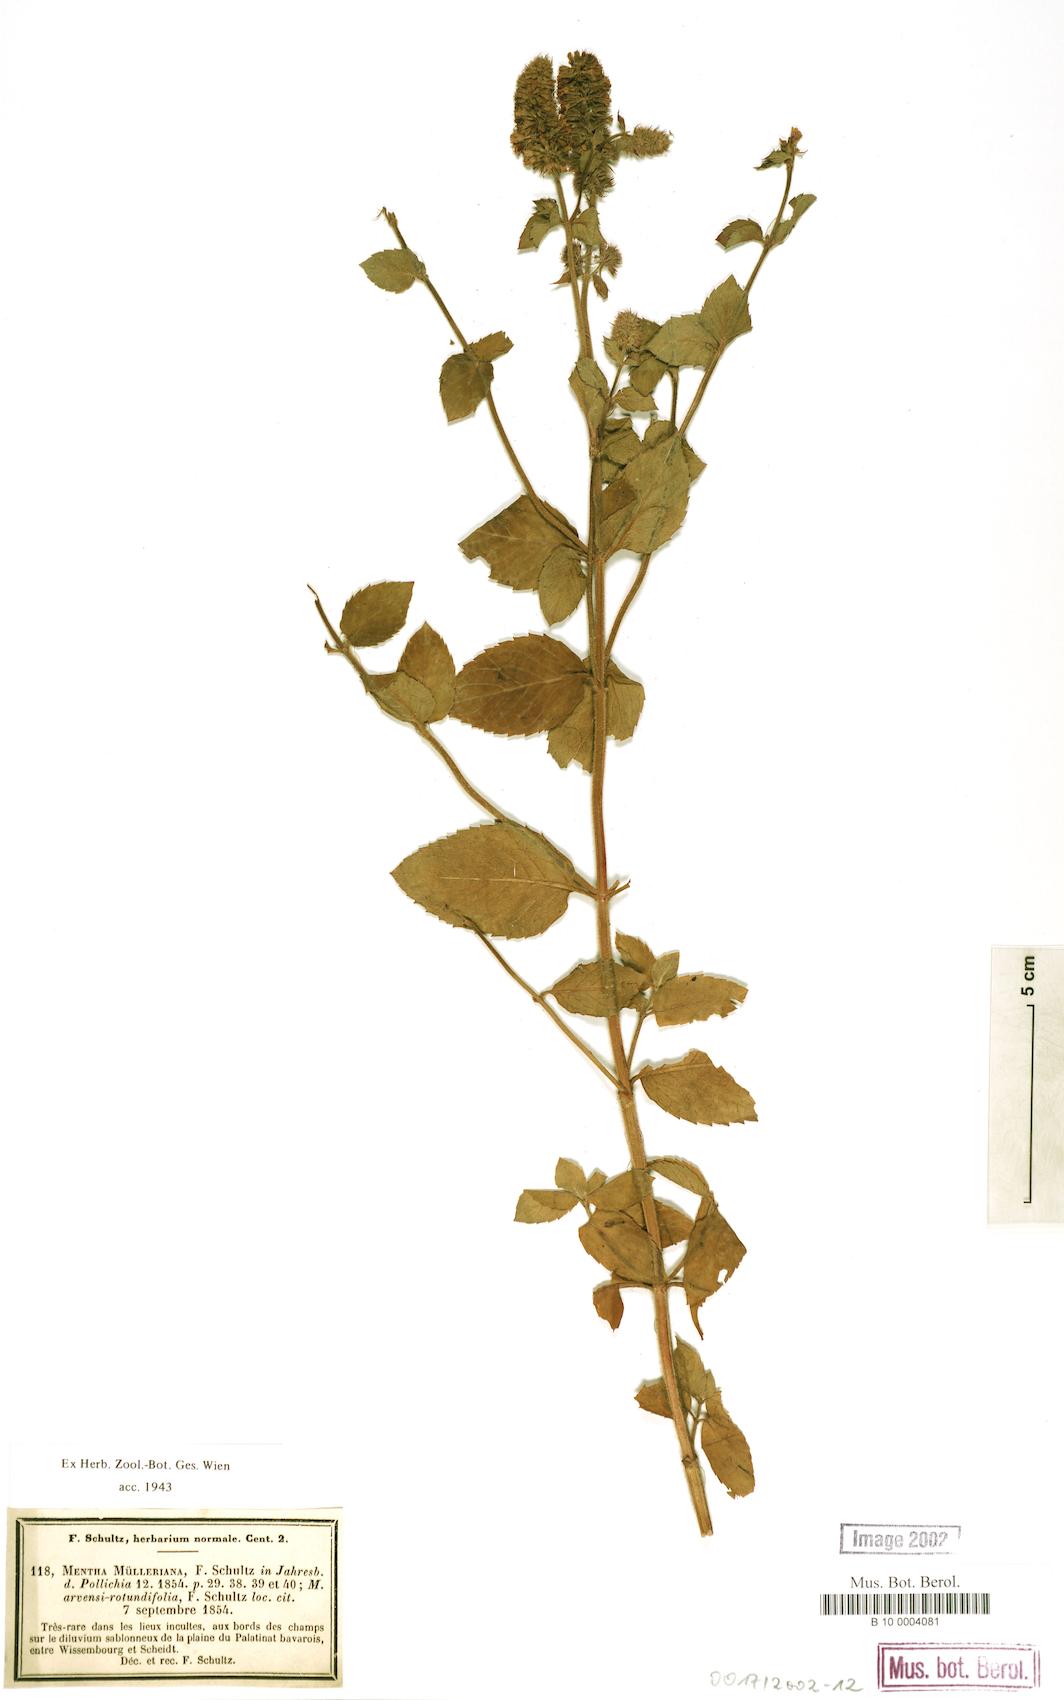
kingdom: Plantae
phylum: Tracheophyta
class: Magnoliopsida
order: Lamiales
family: Lamiaceae
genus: Mentha
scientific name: Mentha carinthiaca
